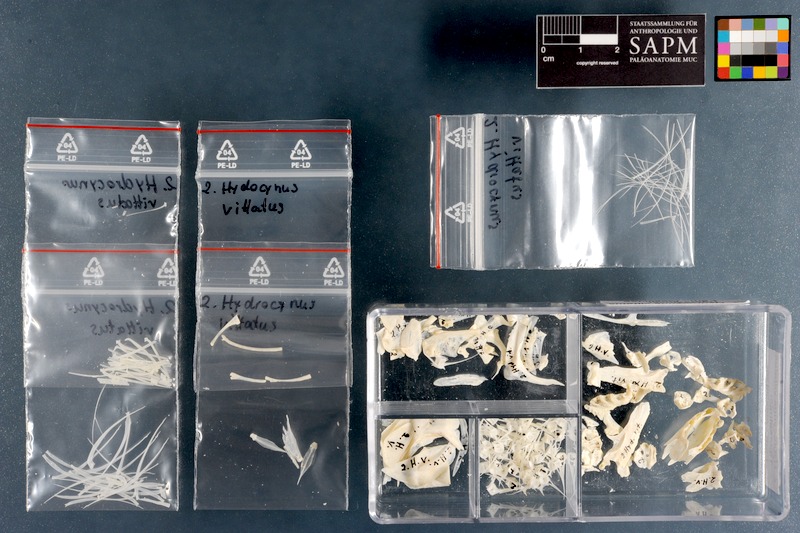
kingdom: Animalia
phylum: Chordata
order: Characiformes
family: Alestidae
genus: Hydrocynus
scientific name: Hydrocynus vittatus
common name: Tigerfish
